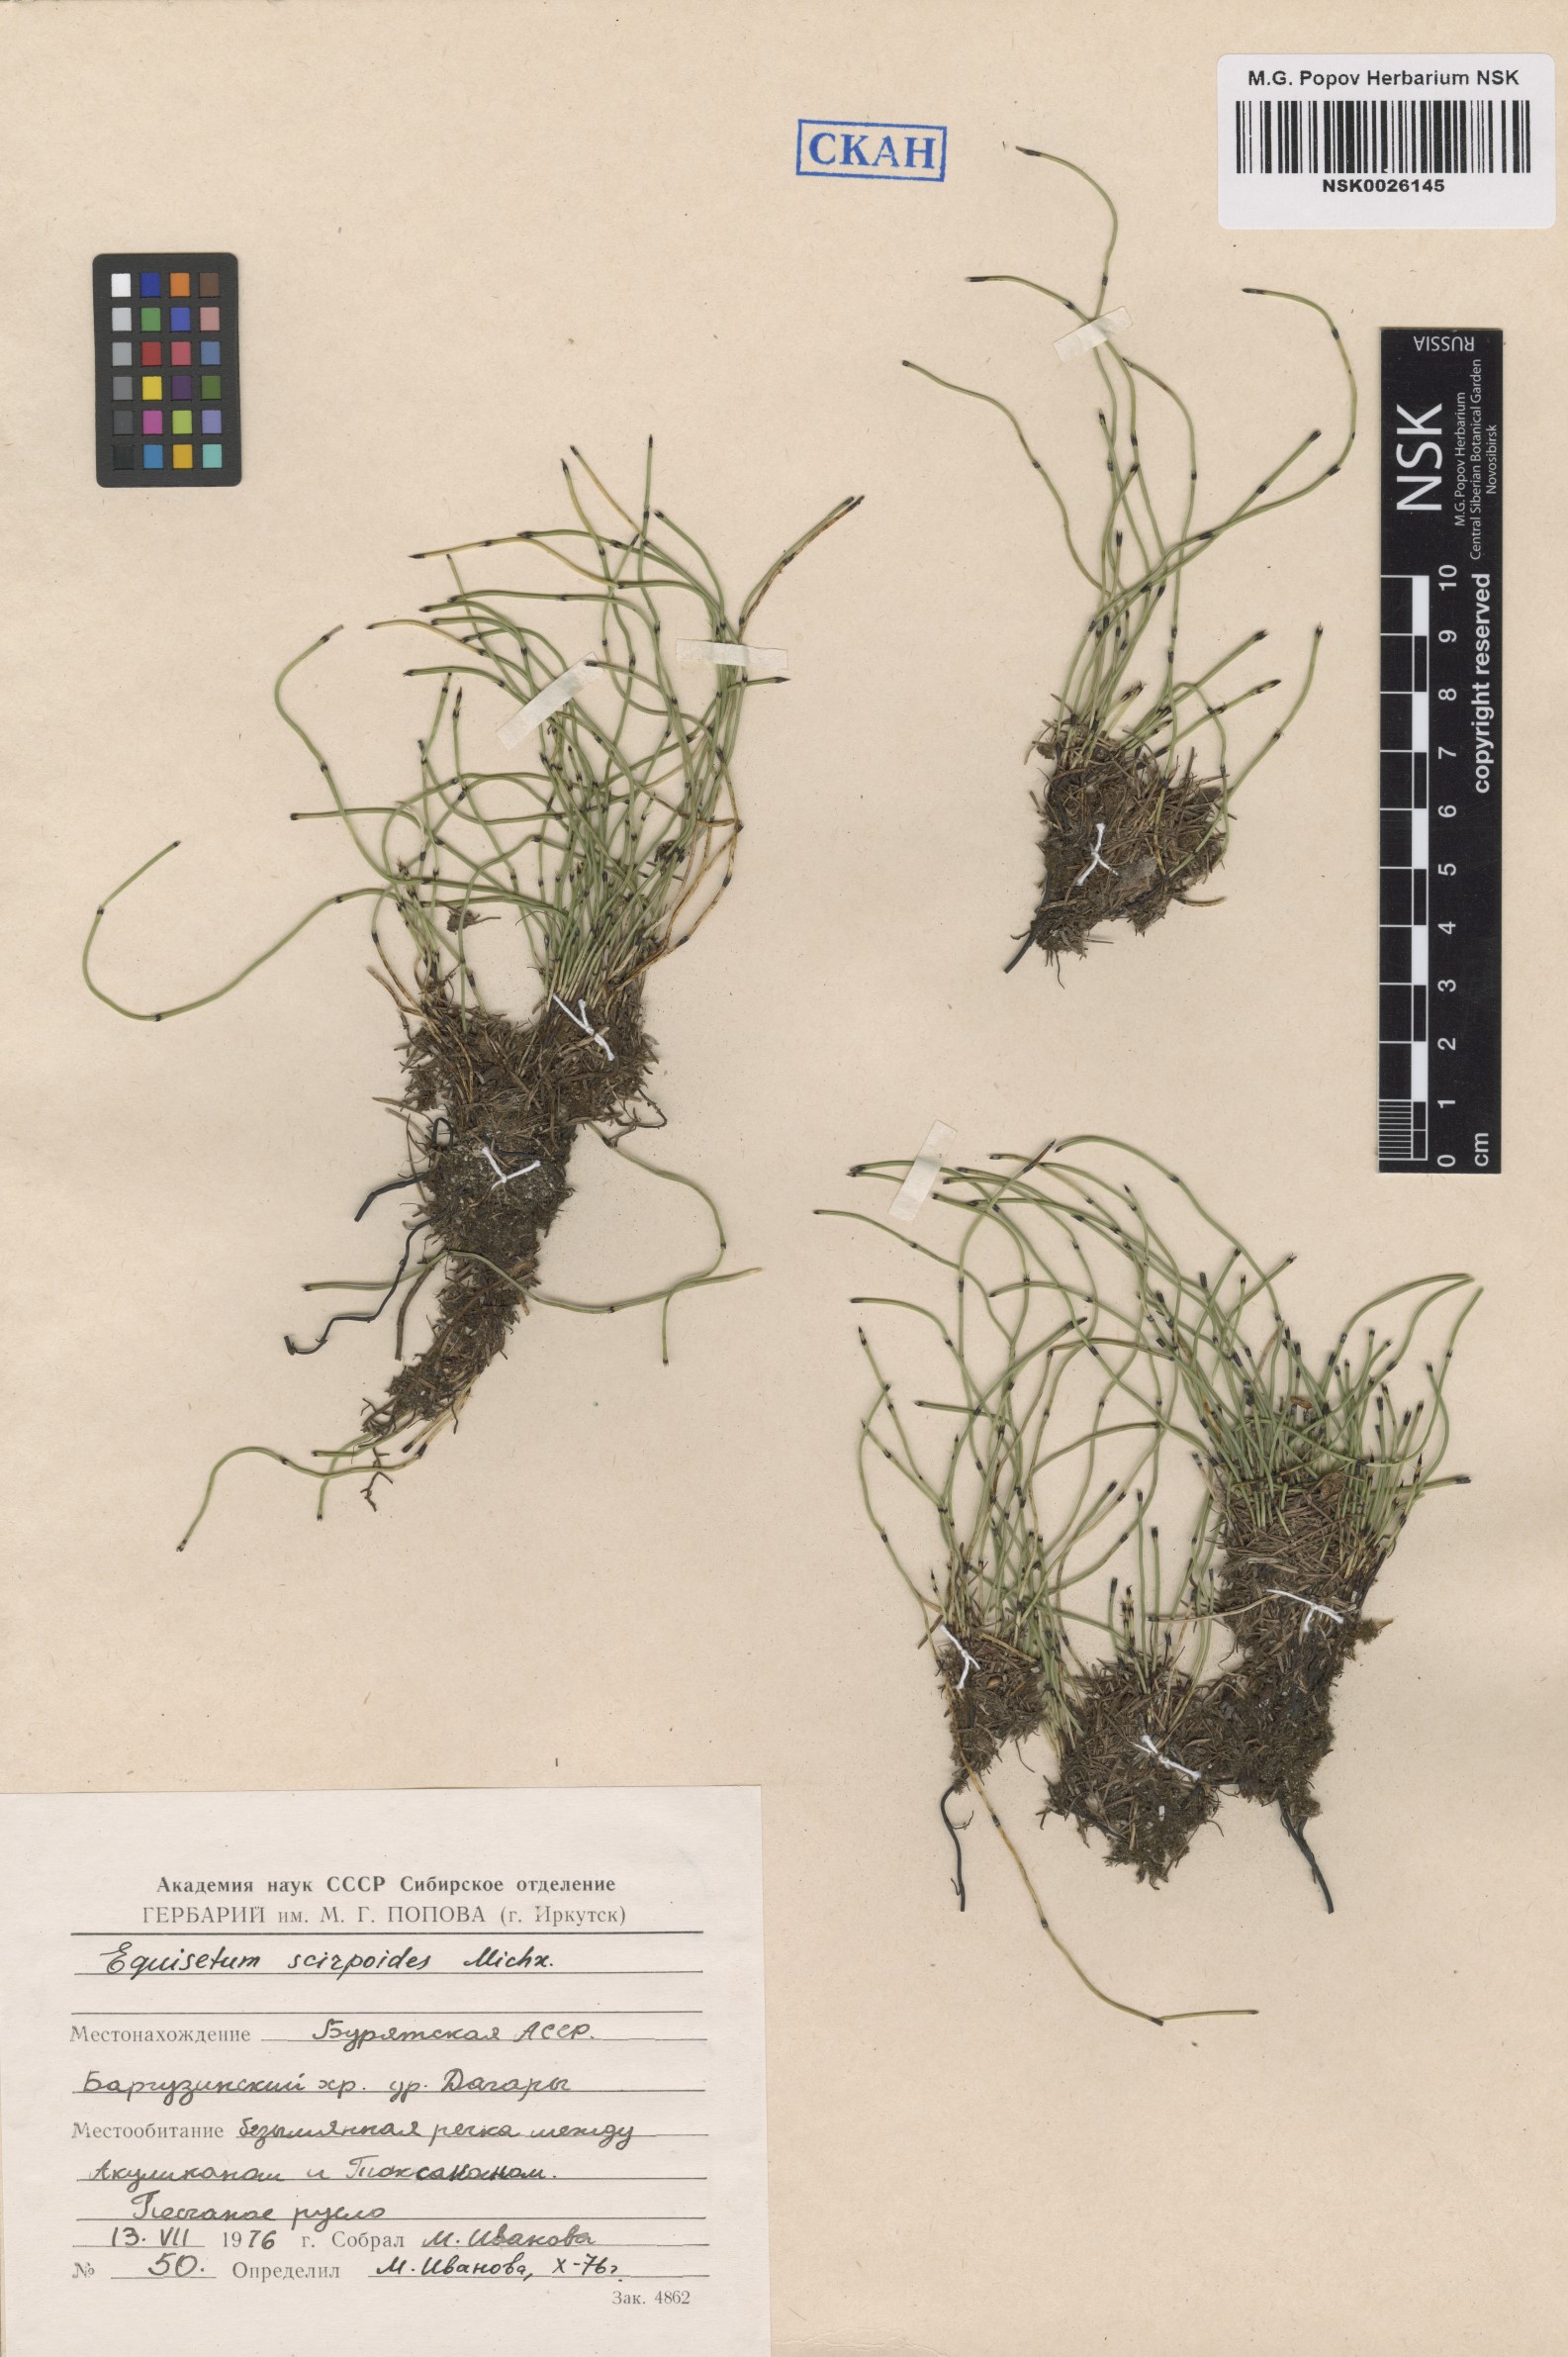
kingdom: Plantae
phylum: Tracheophyta
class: Polypodiopsida
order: Equisetales
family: Equisetaceae
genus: Equisetum
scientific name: Equisetum scirpoides
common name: Delicate horsetail
